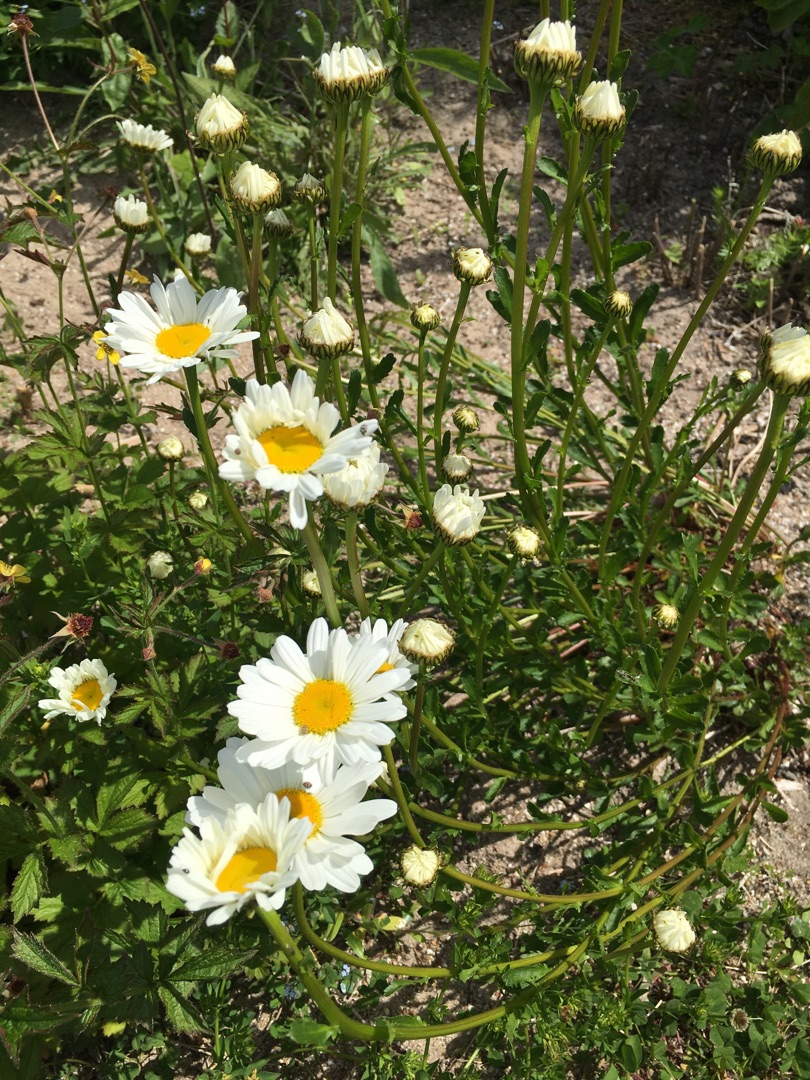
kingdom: Plantae
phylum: Tracheophyta
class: Magnoliopsida
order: Asterales
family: Asteraceae
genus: Leucanthemum
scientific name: Leucanthemum vulgare
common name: Hvid okseøje
